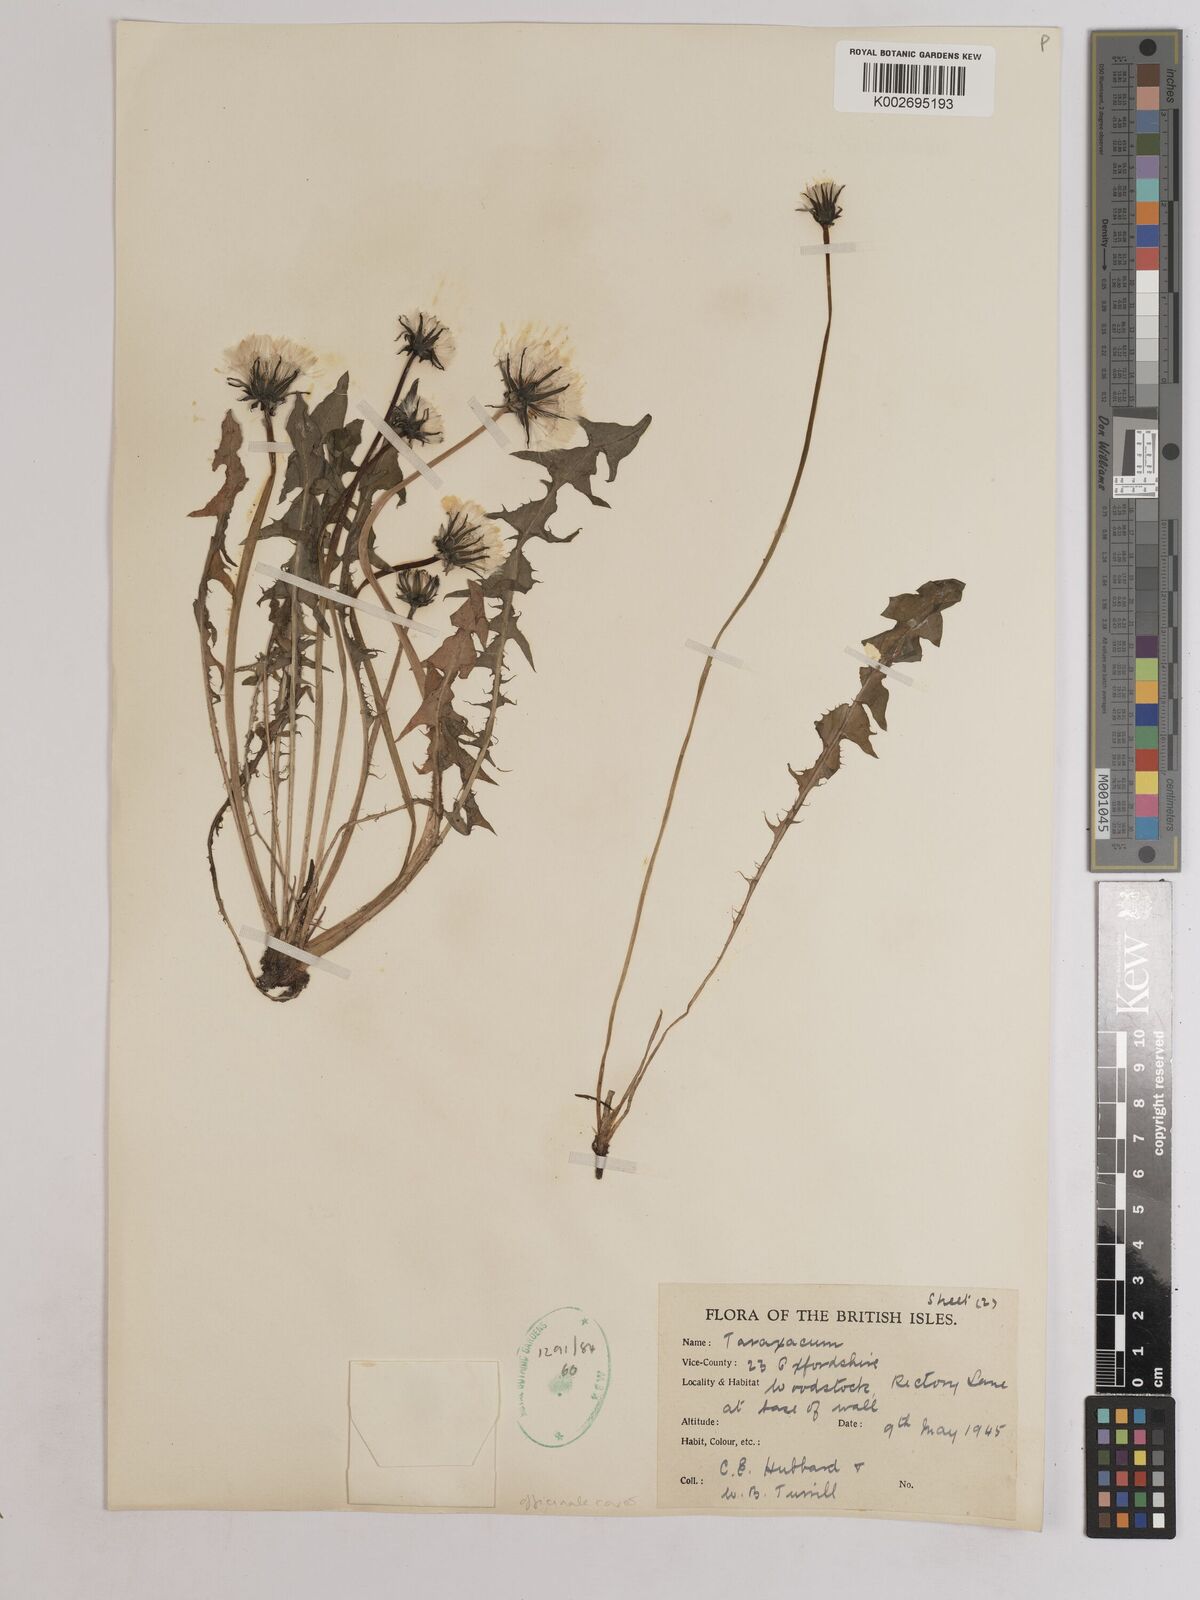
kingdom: Plantae
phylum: Tracheophyta
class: Magnoliopsida
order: Asterales
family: Asteraceae
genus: Taraxacum
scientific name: Taraxacum officinale
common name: Common dandelion
